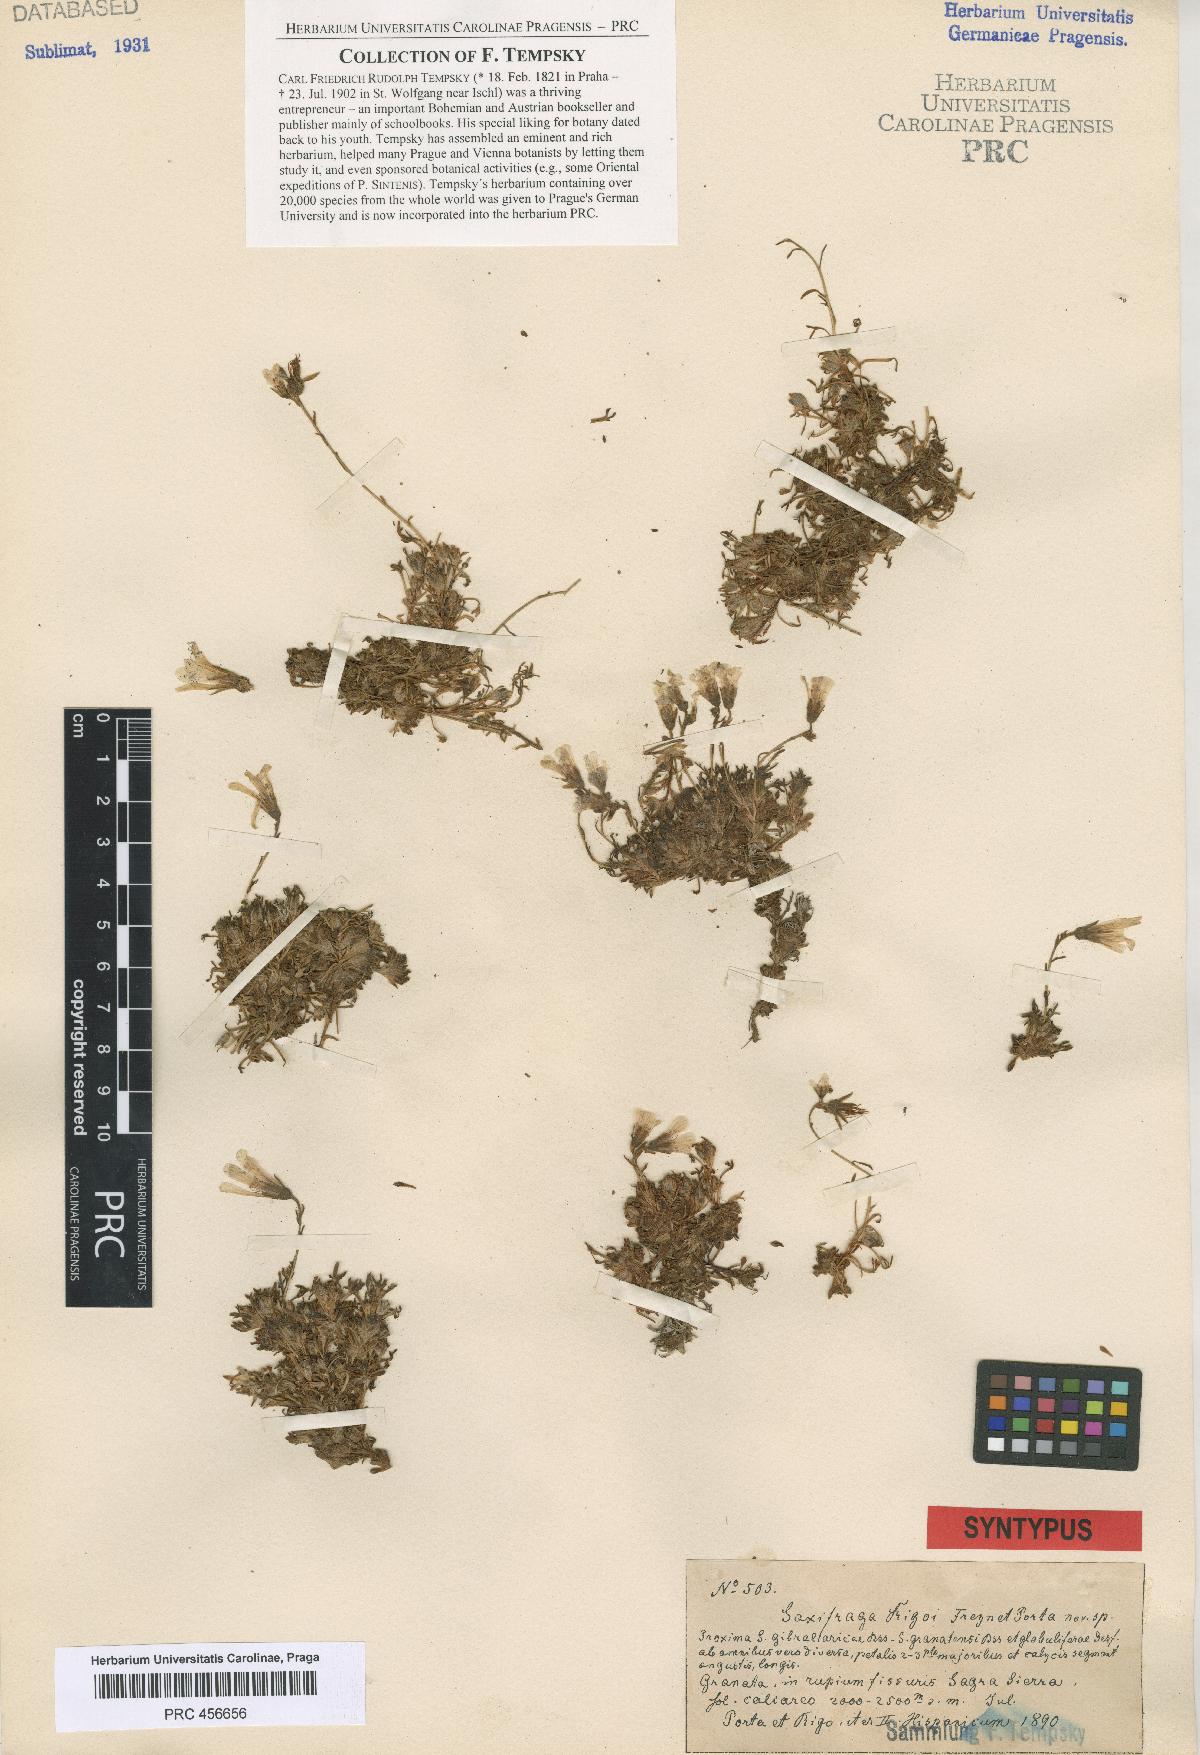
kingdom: Plantae
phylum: Tracheophyta
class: Magnoliopsida
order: Saxifragales
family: Saxifragaceae
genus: Saxifraga
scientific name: Saxifraga rigoi
